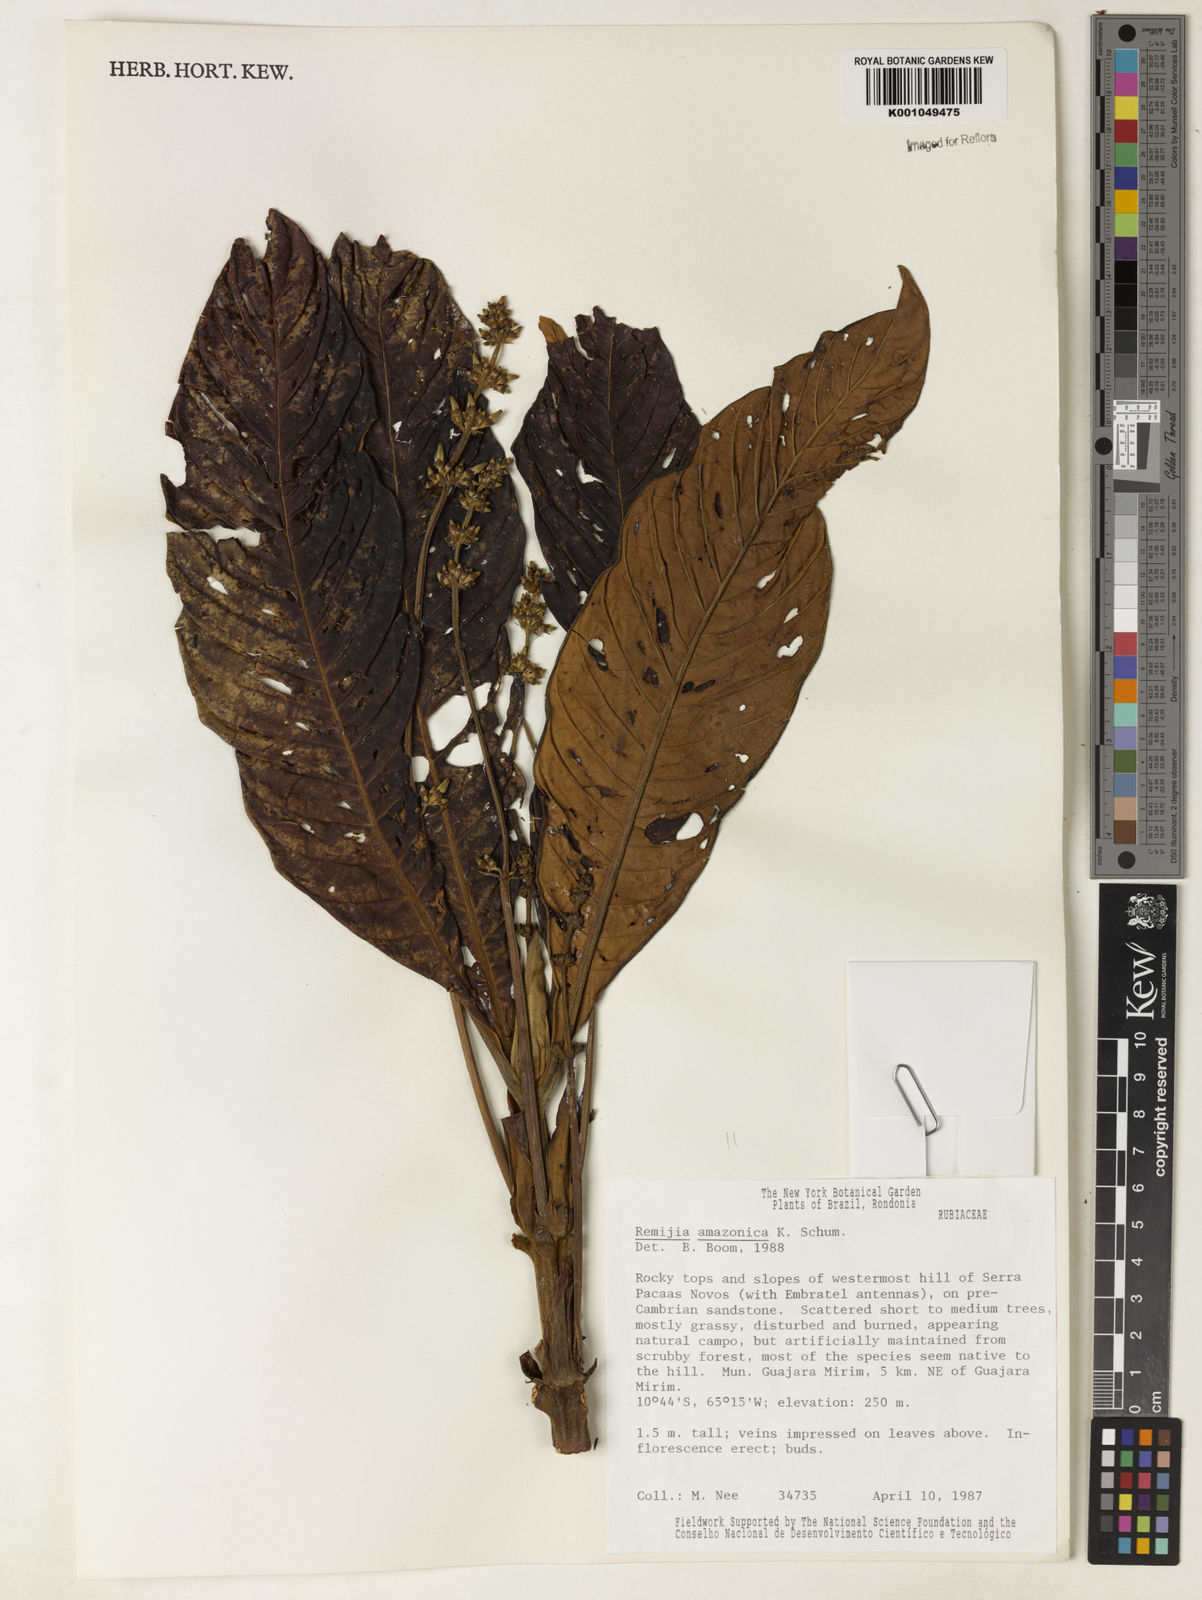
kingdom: Plantae
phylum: Tracheophyta
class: Magnoliopsida
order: Gentianales
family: Rubiaceae
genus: Remijia
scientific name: Remijia amazonica
